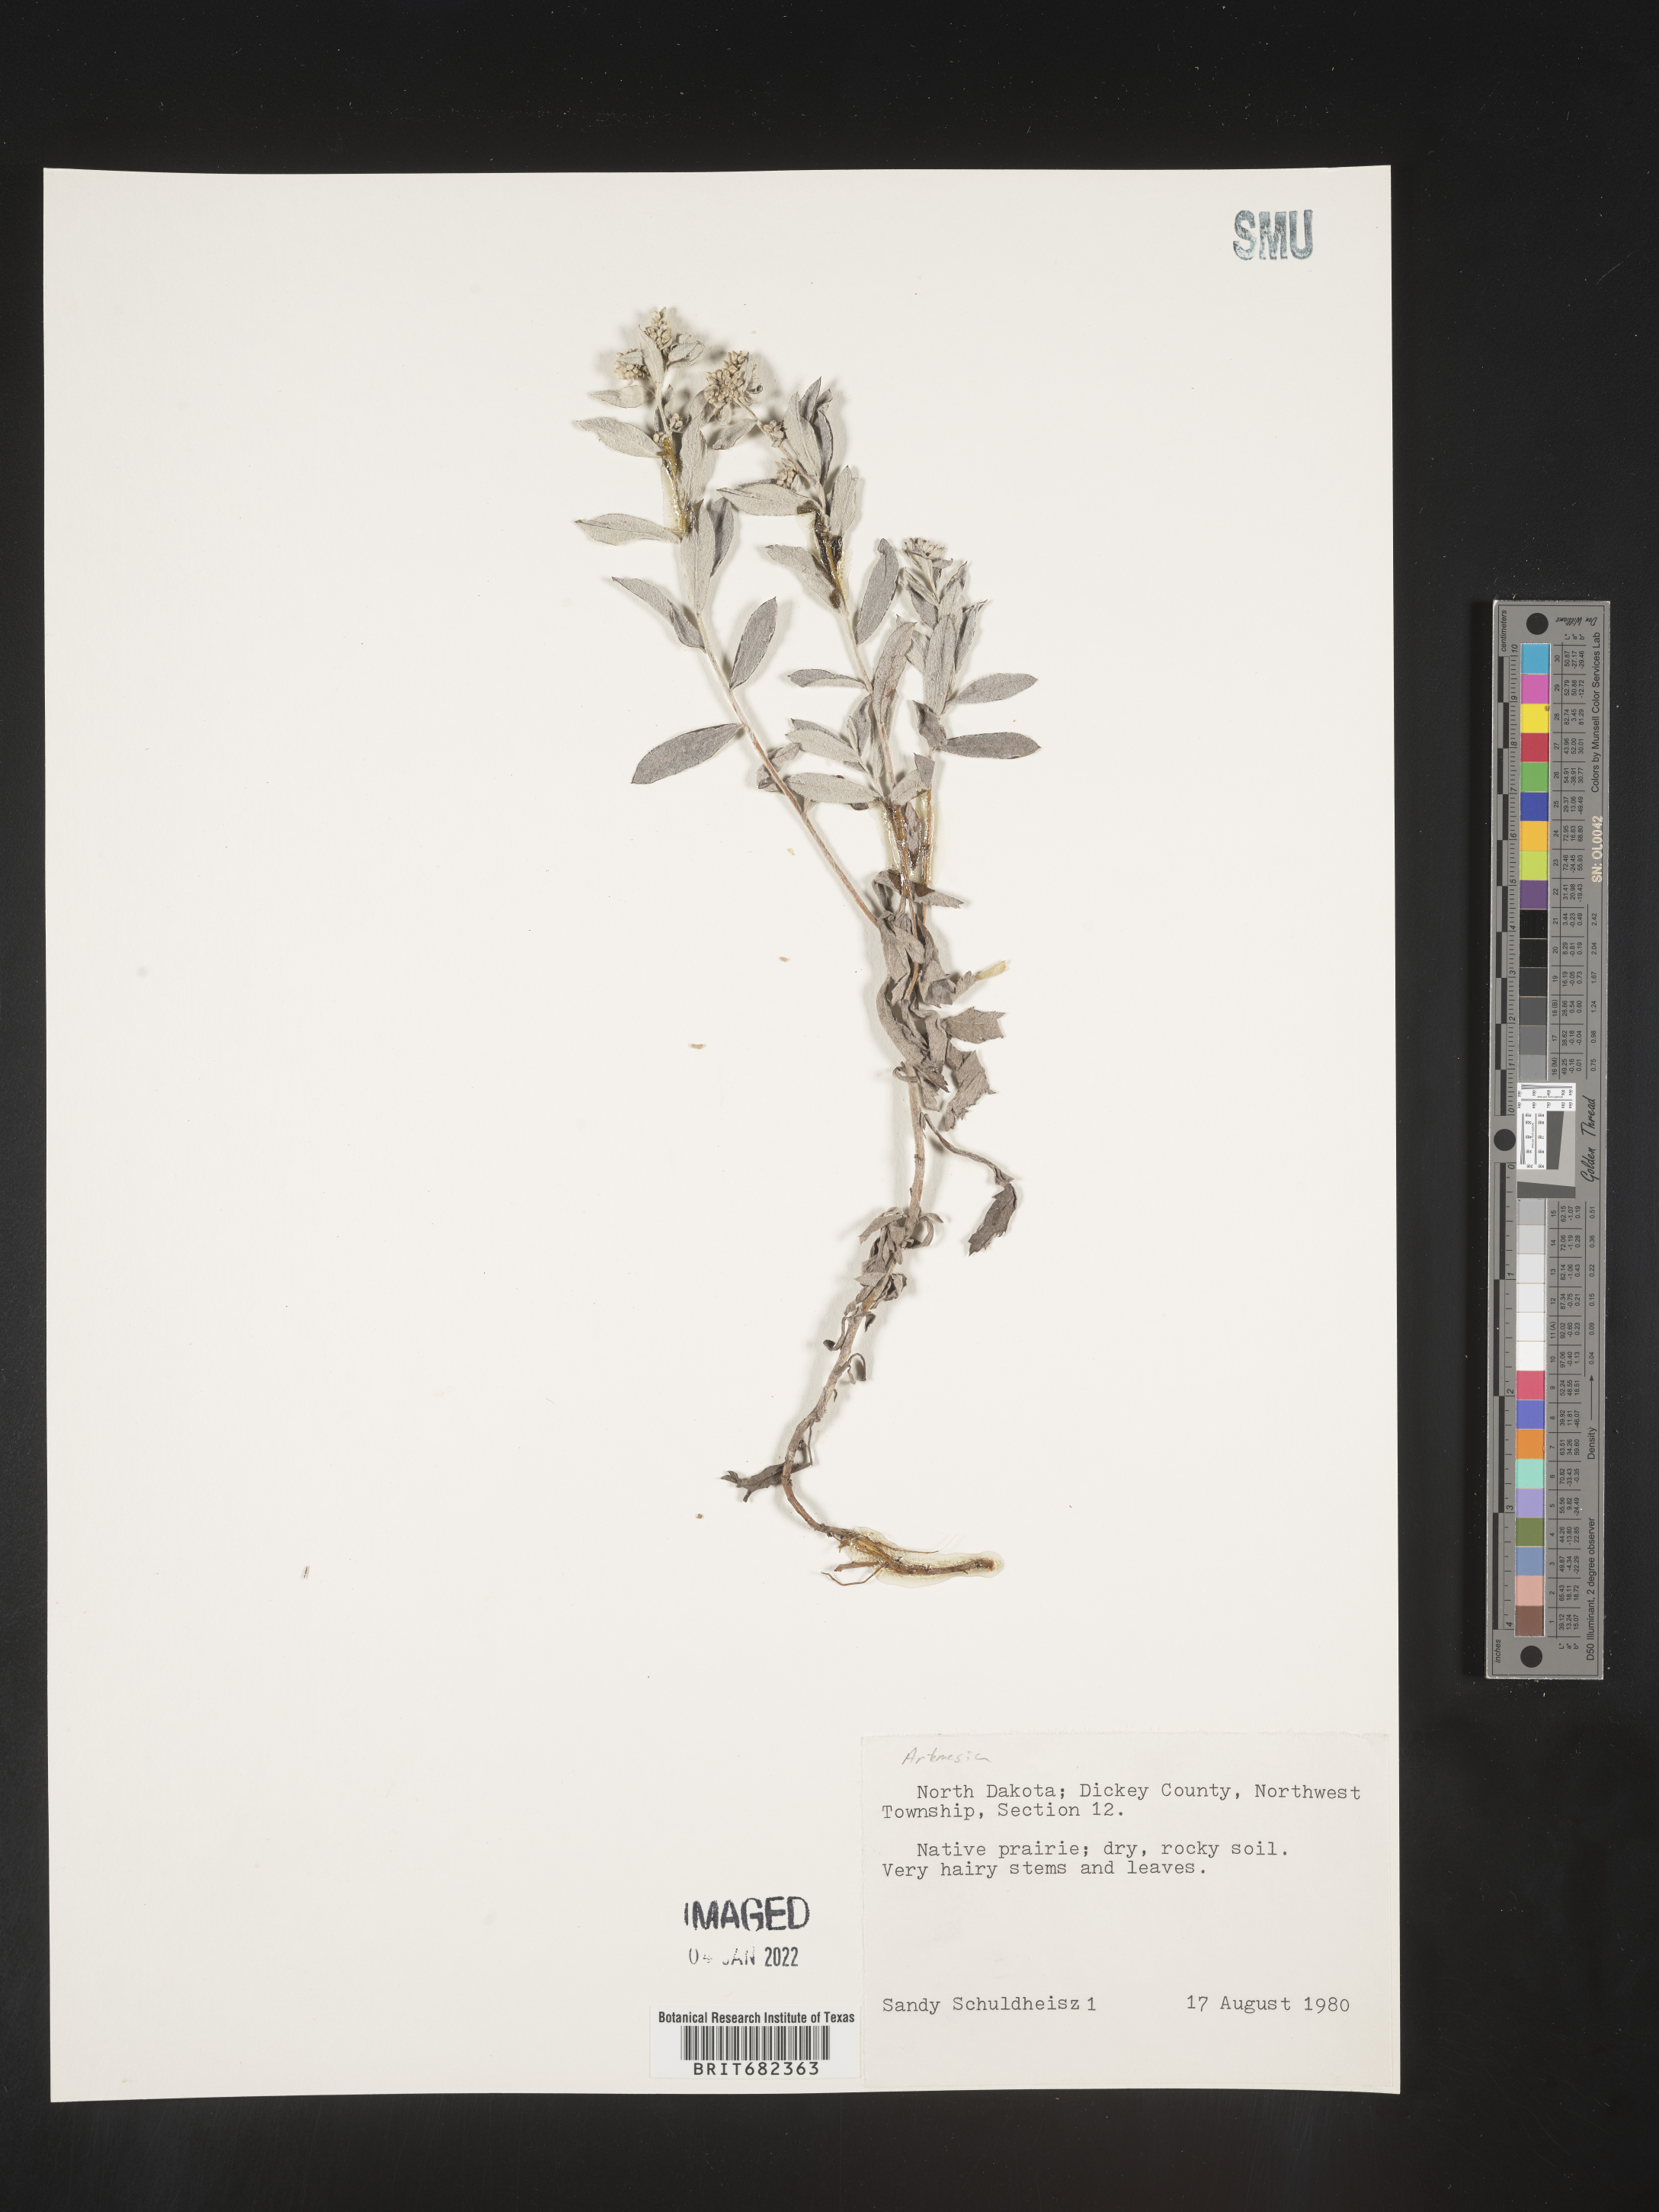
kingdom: Plantae
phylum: Tracheophyta
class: Magnoliopsida
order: Asterales
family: Asteraceae
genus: Artemisia
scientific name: Artemisia
